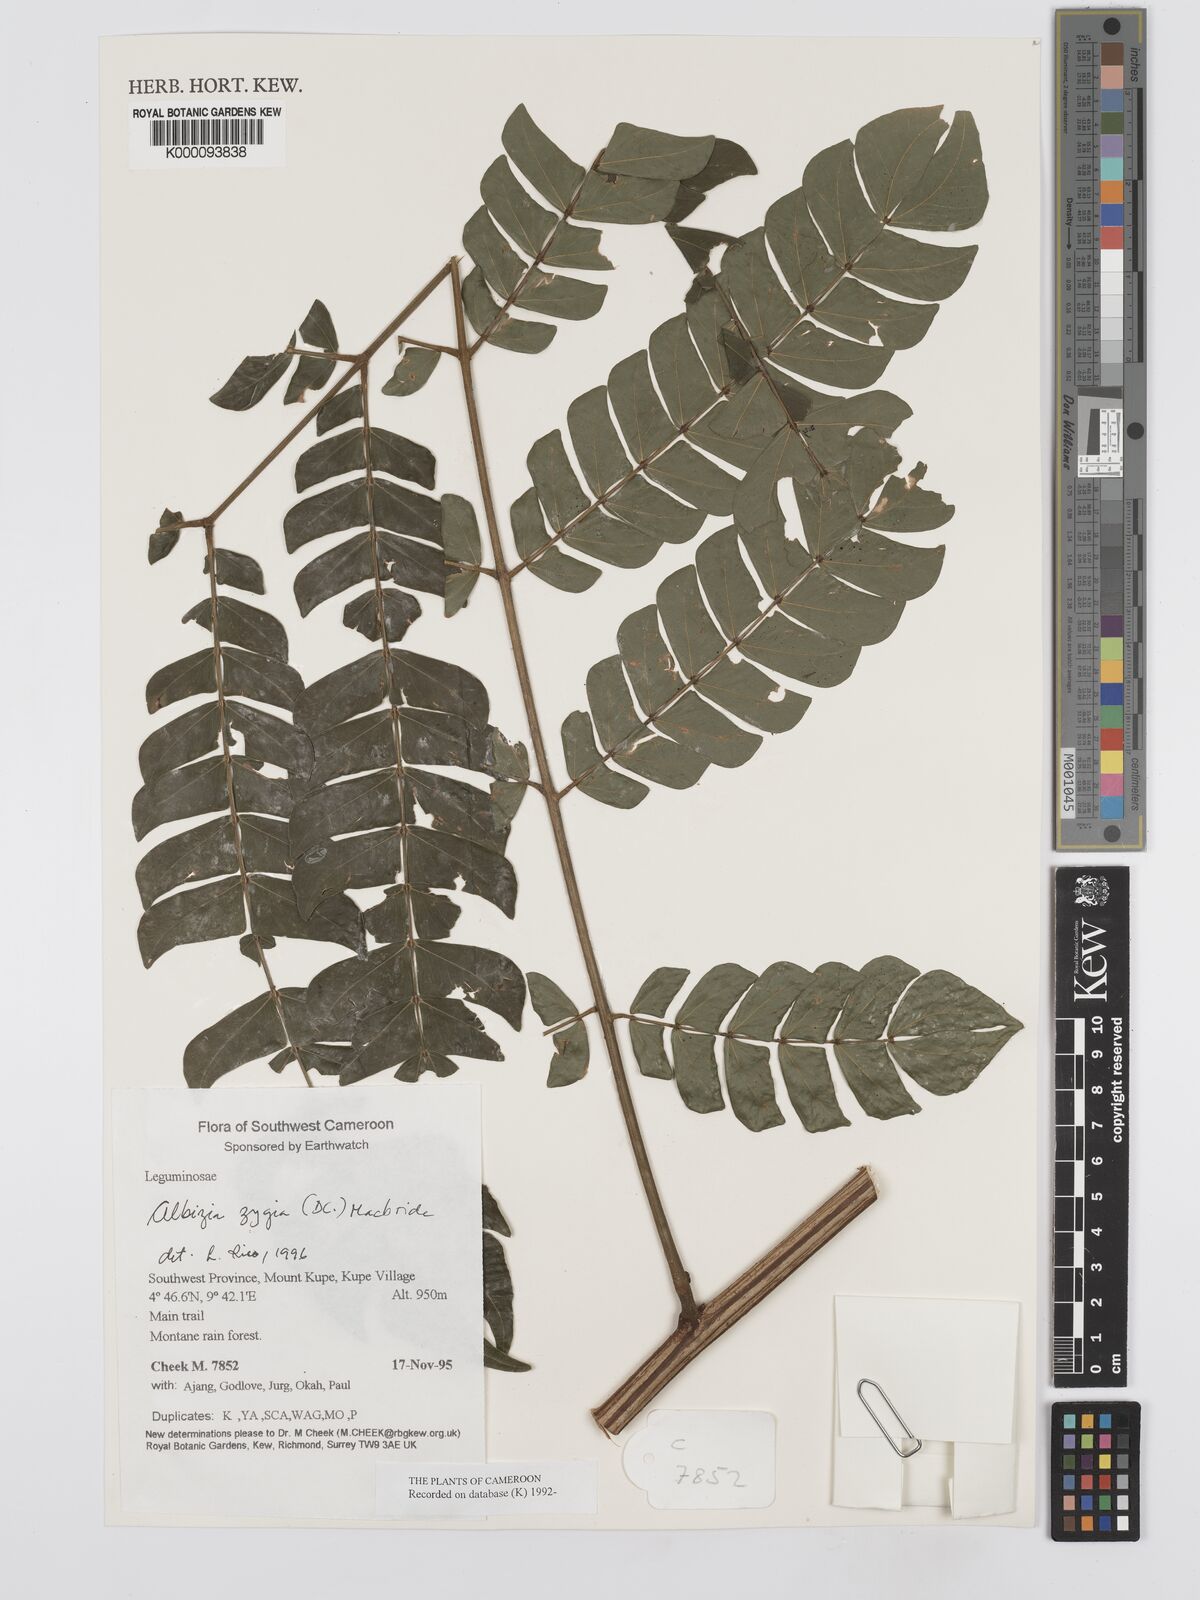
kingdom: Plantae
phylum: Tracheophyta
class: Magnoliopsida
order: Fabales
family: Fabaceae
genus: Albizia
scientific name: Albizia zygia
